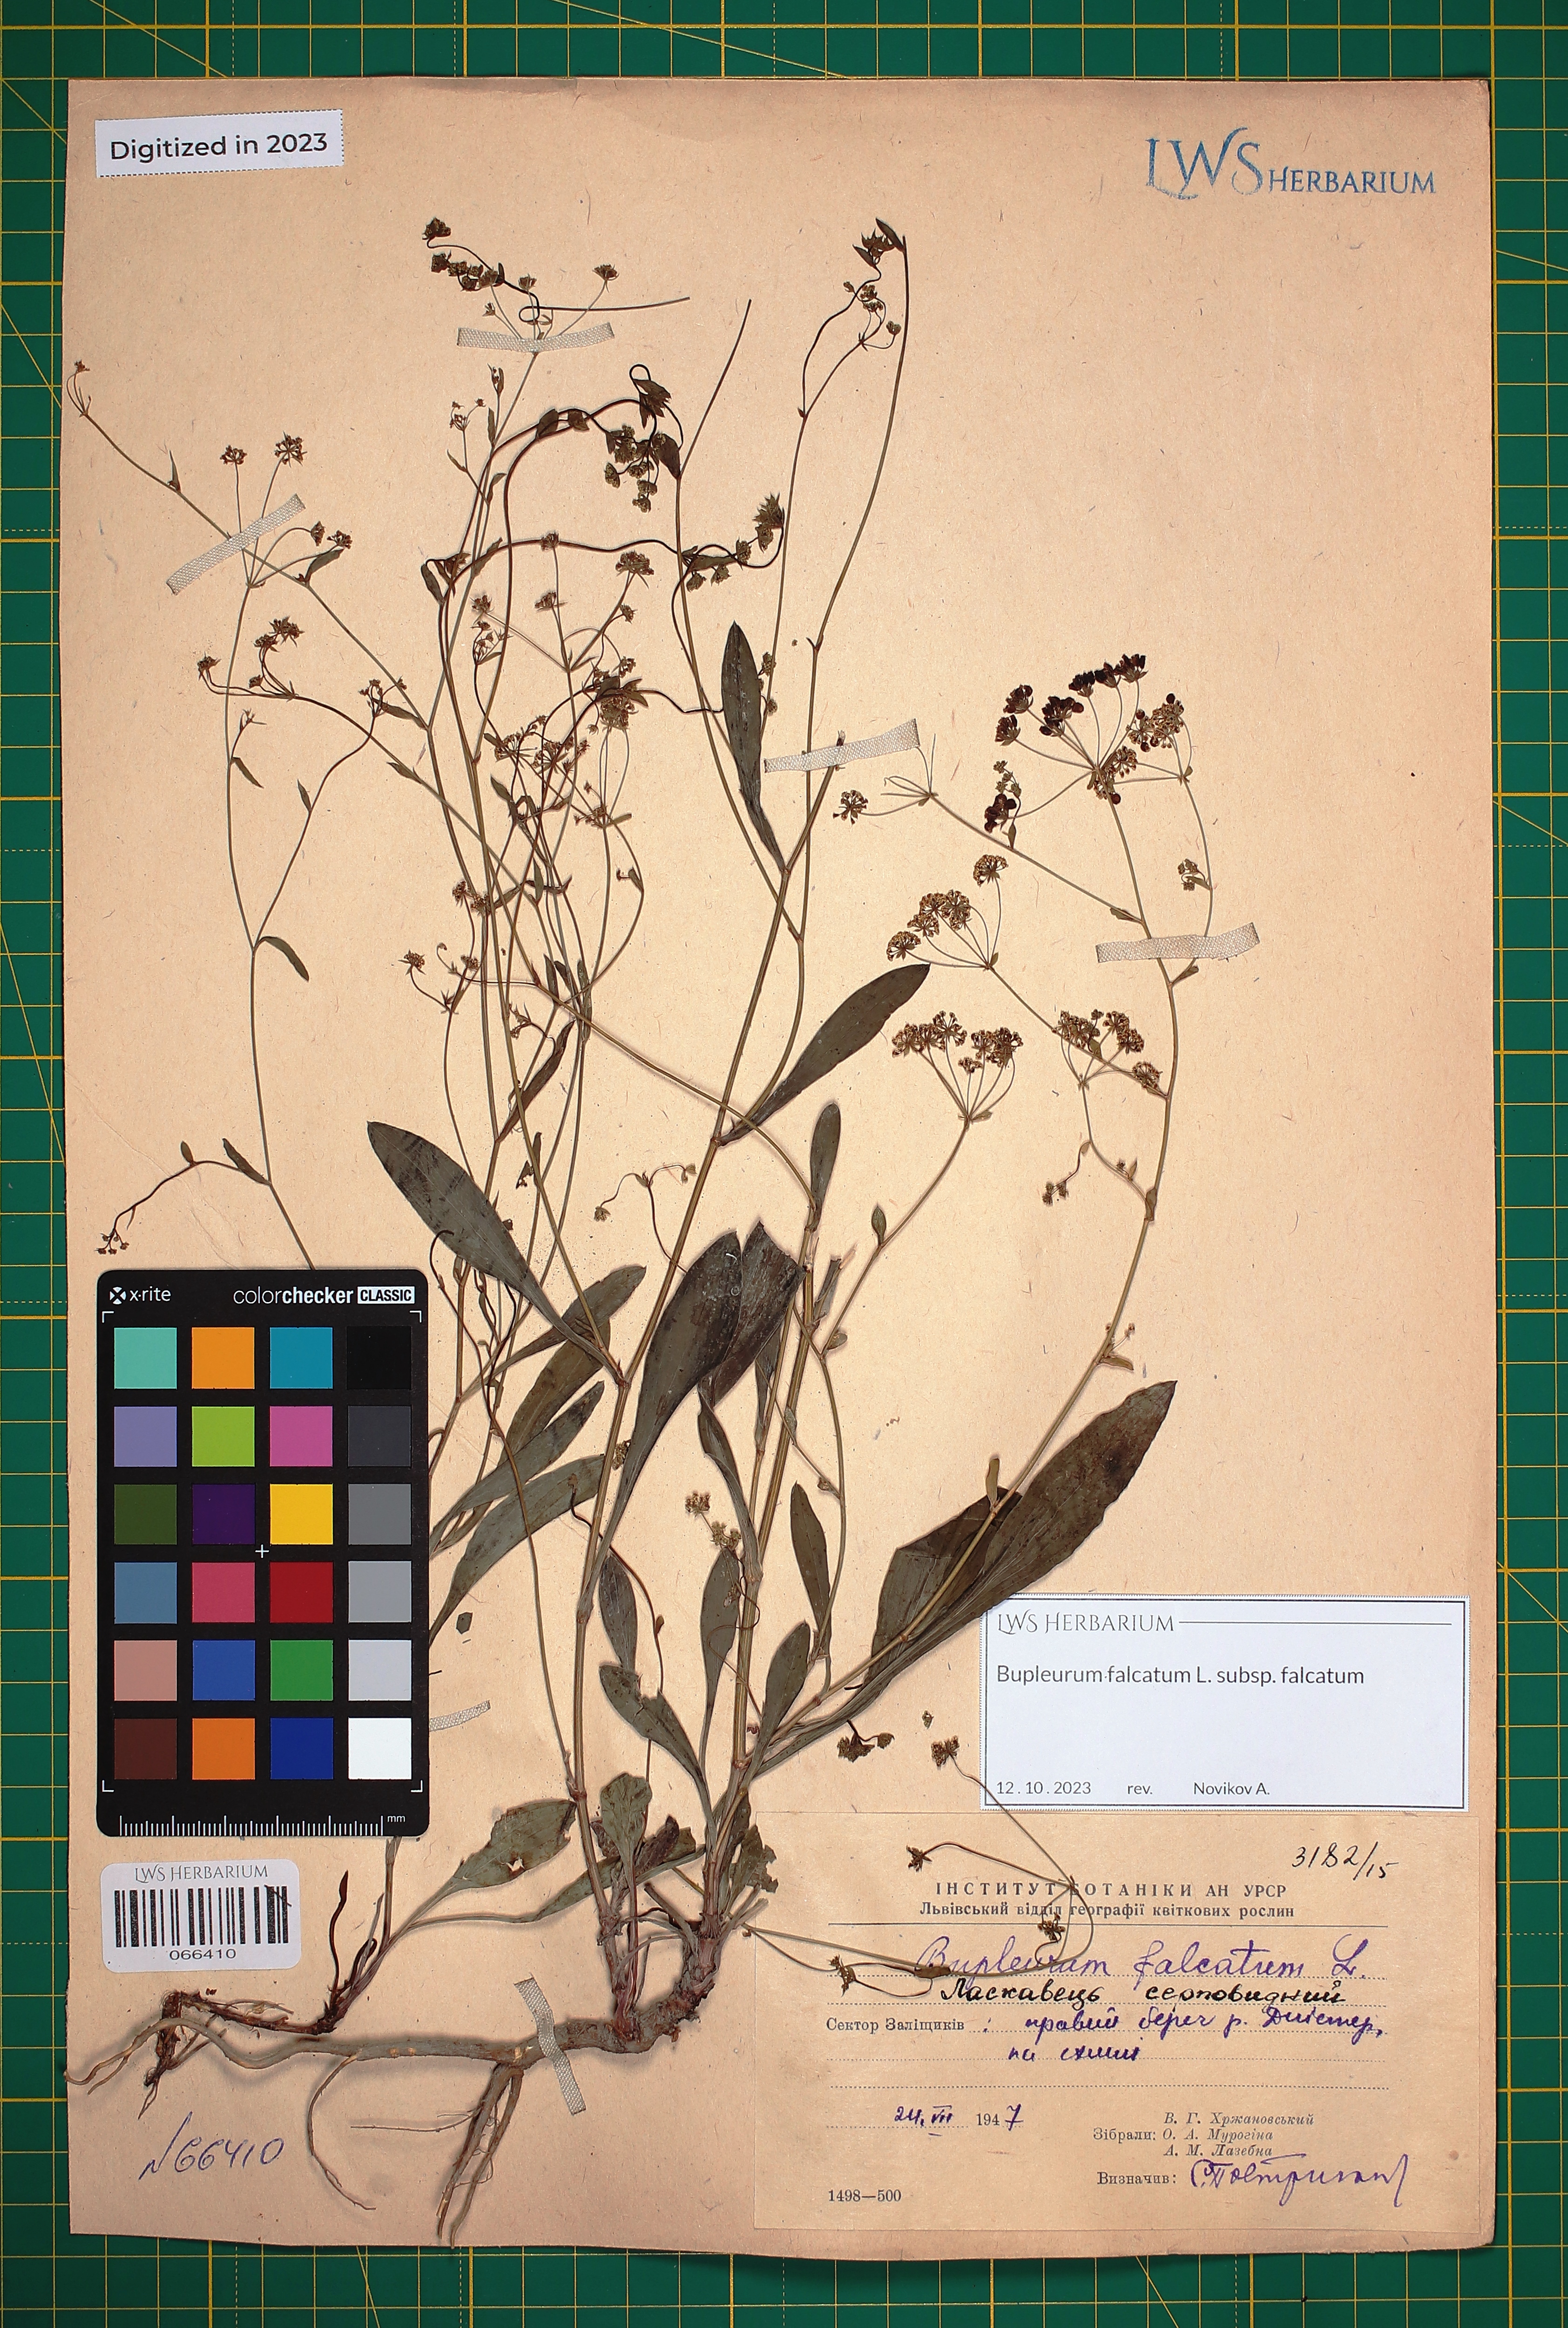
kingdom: Plantae
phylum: Tracheophyta
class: Magnoliopsida
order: Apiales
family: Apiaceae
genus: Bupleurum
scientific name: Bupleurum falcatum
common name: Sickle-leaved hare's-ear
